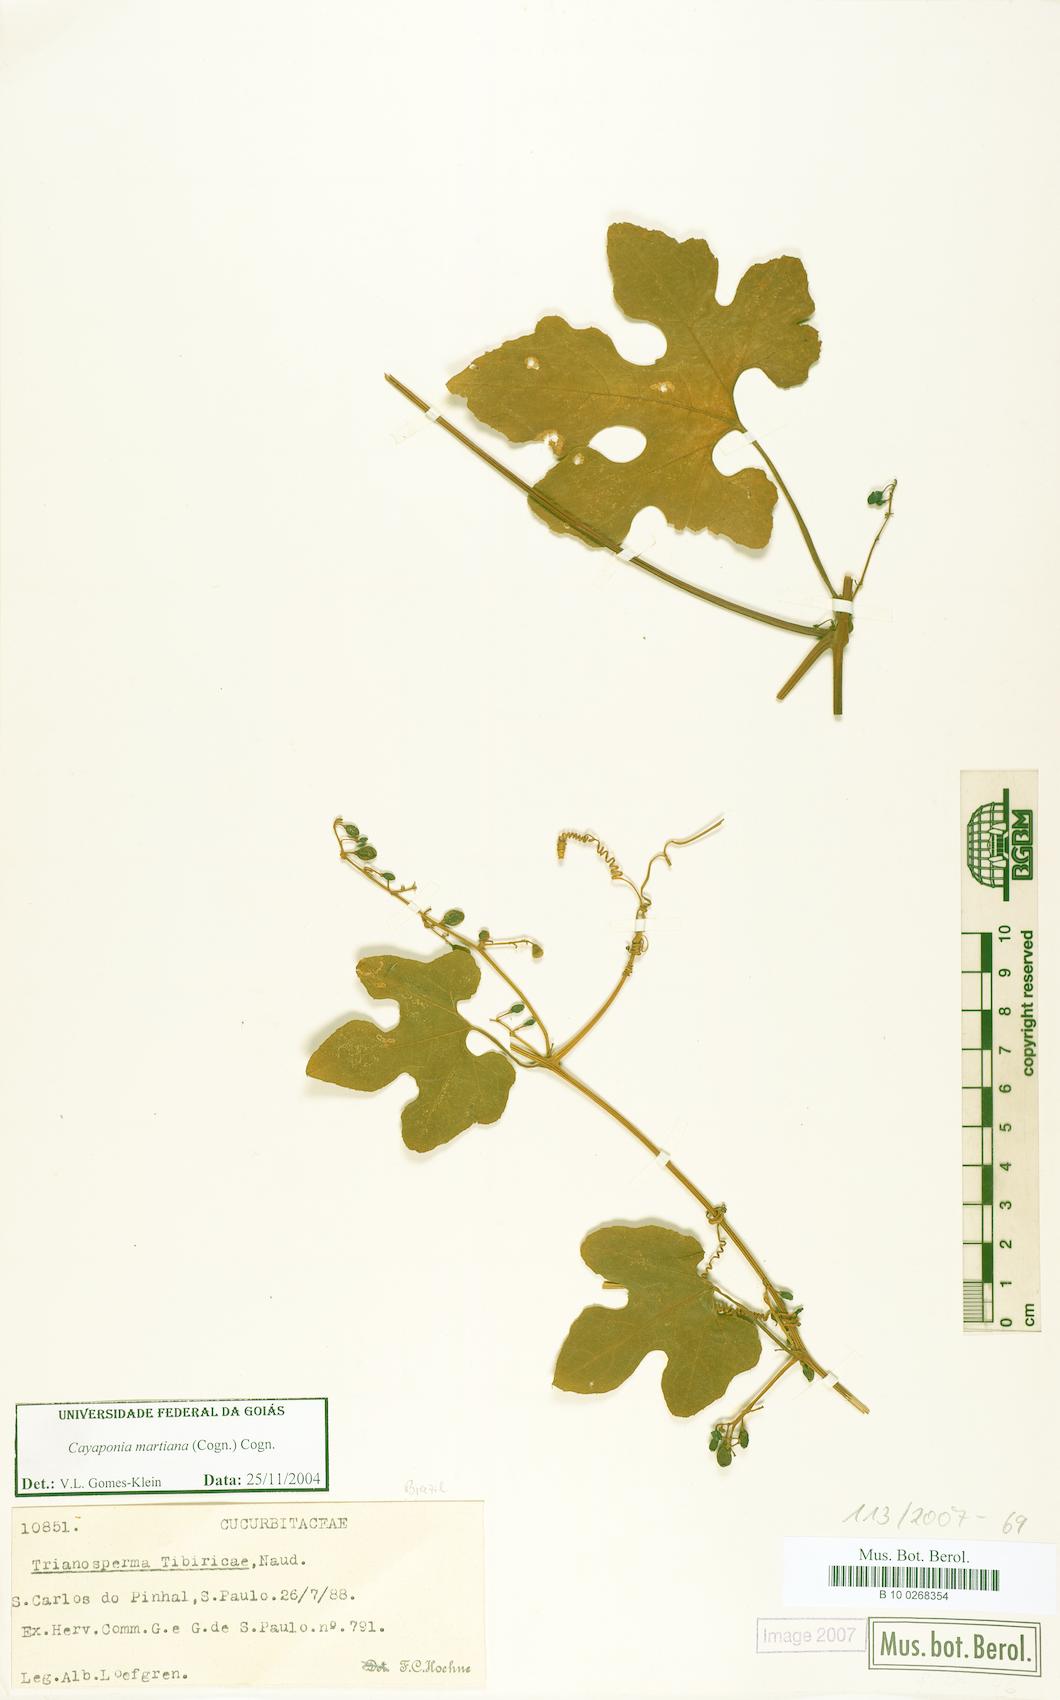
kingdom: Plantae
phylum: Tracheophyta
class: Magnoliopsida
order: Cucurbitales
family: Cucurbitaceae
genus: Cayaponia
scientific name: Cayaponia martiana
